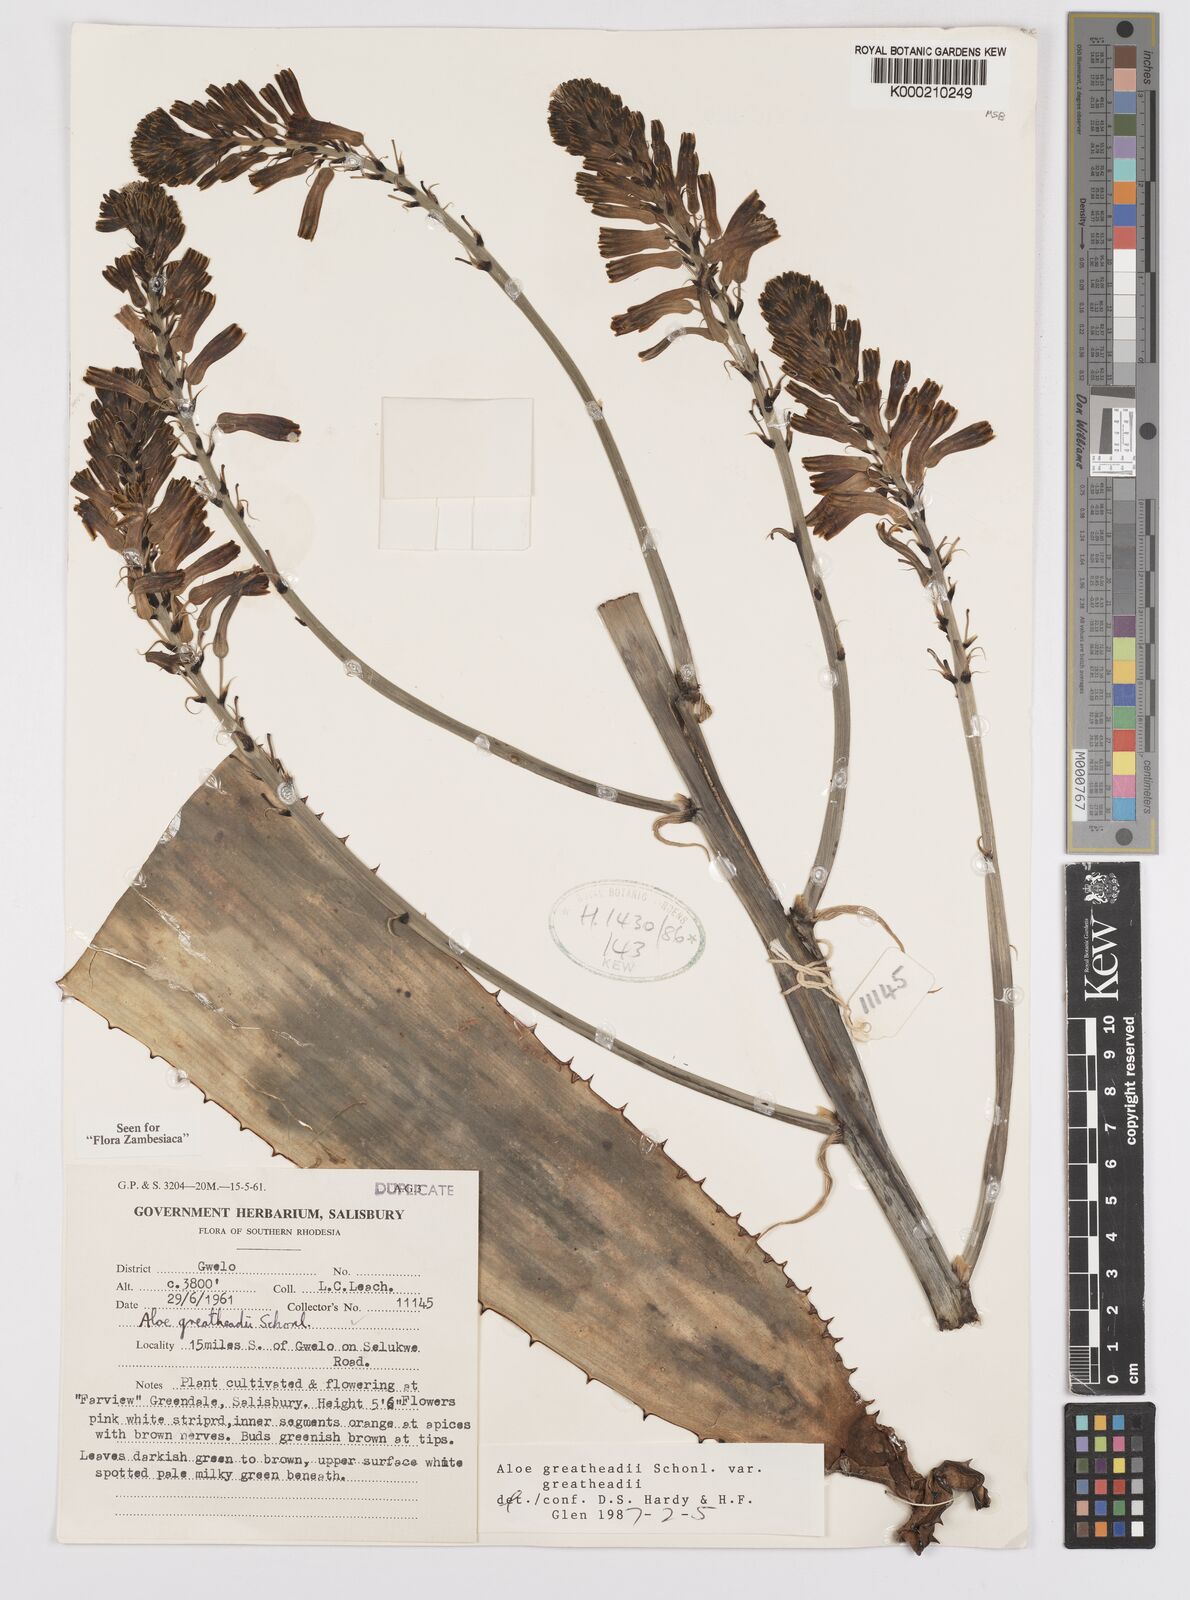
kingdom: Plantae
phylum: Tracheophyta
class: Liliopsida
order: Asparagales
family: Asphodelaceae
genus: Aloe
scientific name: Aloe greatheadii
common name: Greathead's aloe
